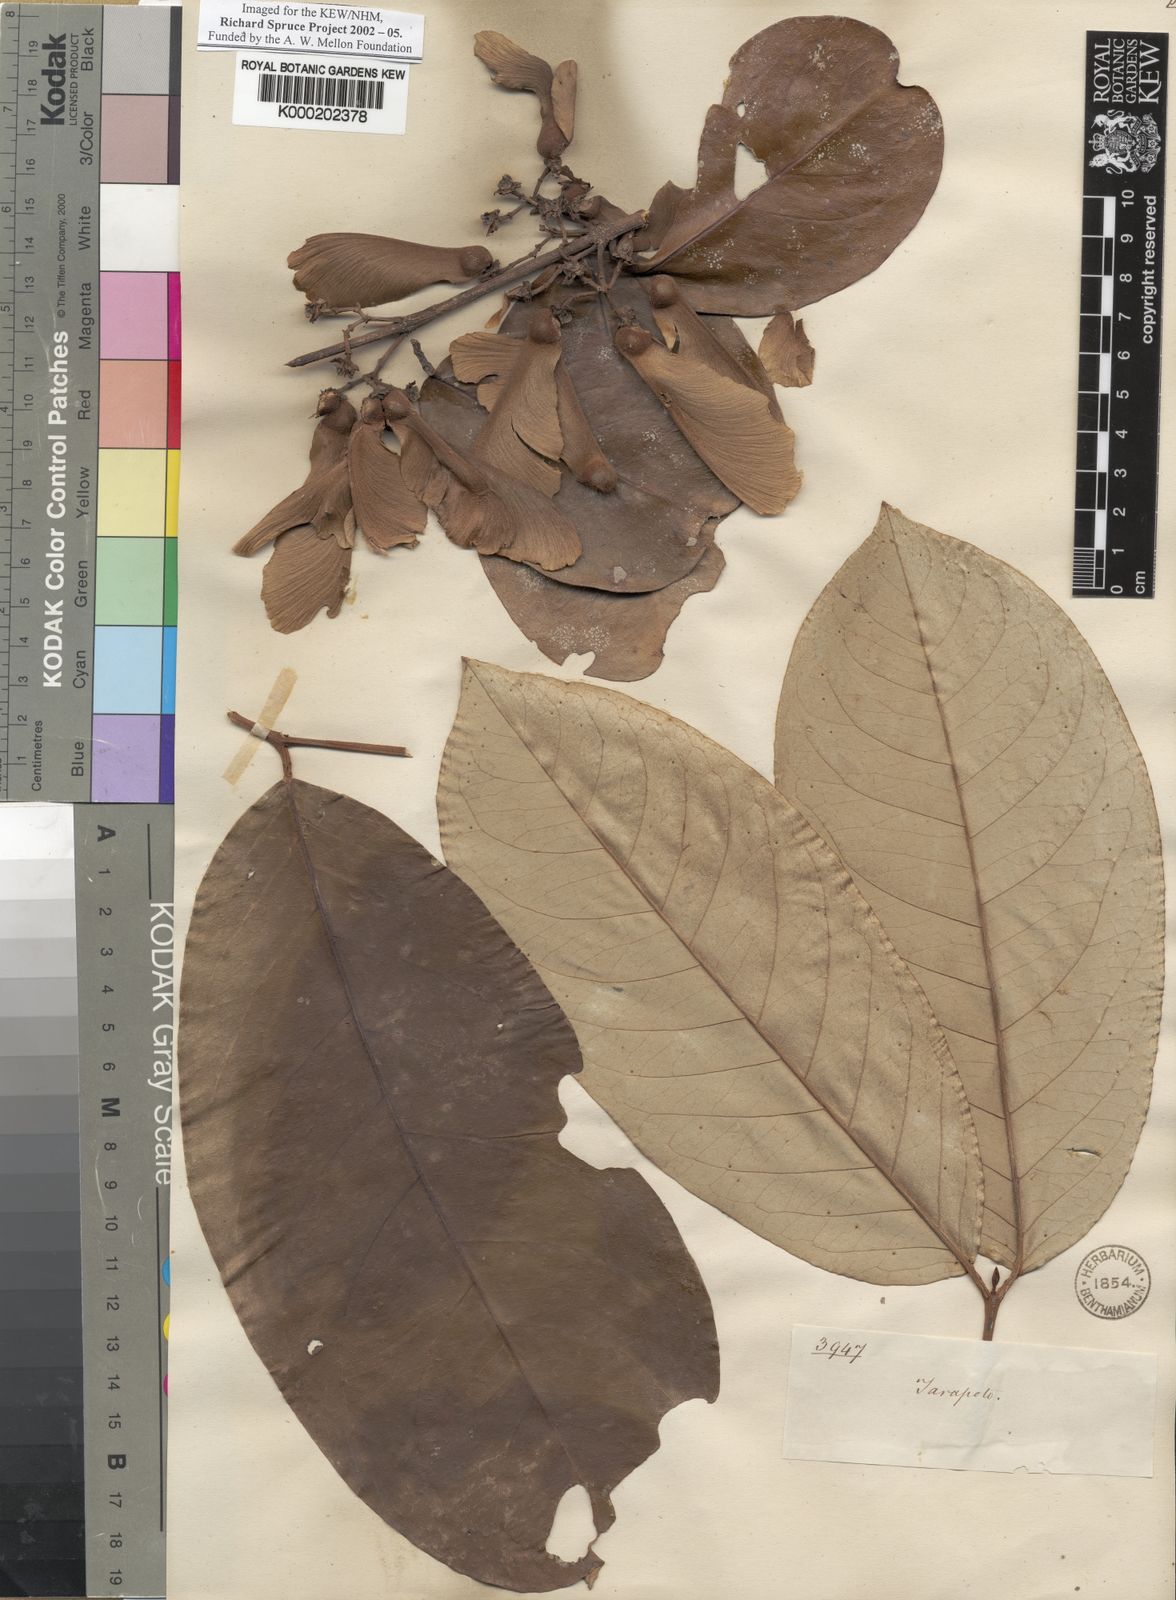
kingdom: Plantae
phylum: Tracheophyta
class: Magnoliopsida
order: Malpighiales
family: Malpighiaceae
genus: Banisteriopsis
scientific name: Banisteriopsis
